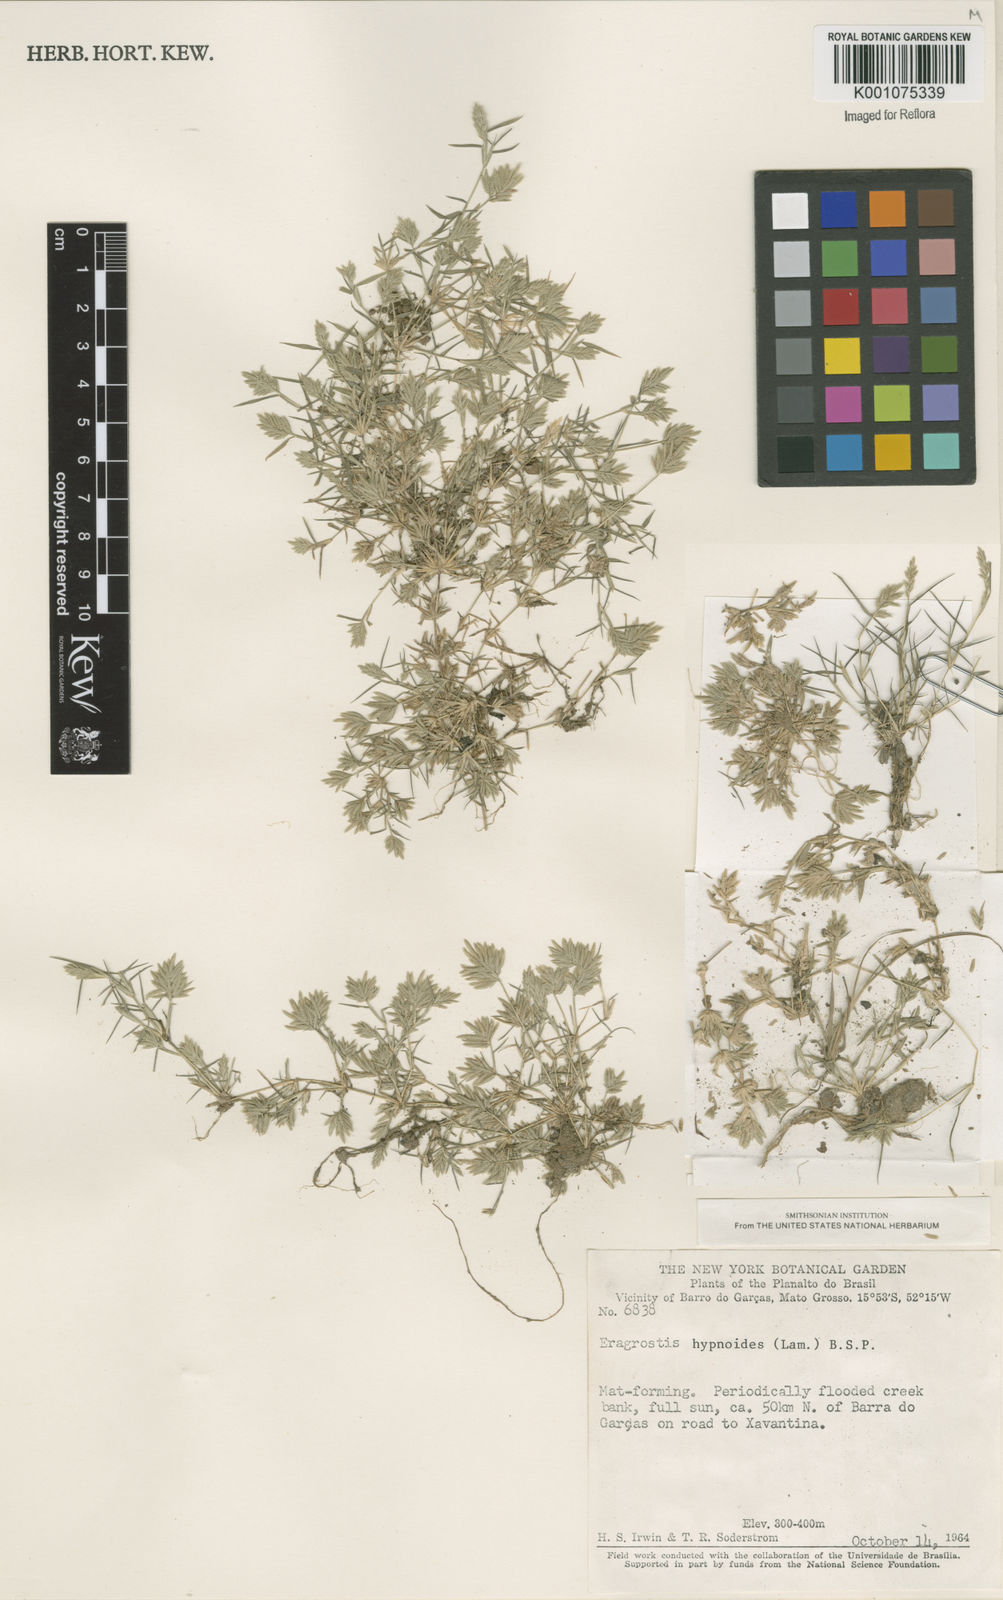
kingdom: Plantae
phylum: Tracheophyta
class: Liliopsida
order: Poales
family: Poaceae
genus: Eragrostis
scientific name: Eragrostis
